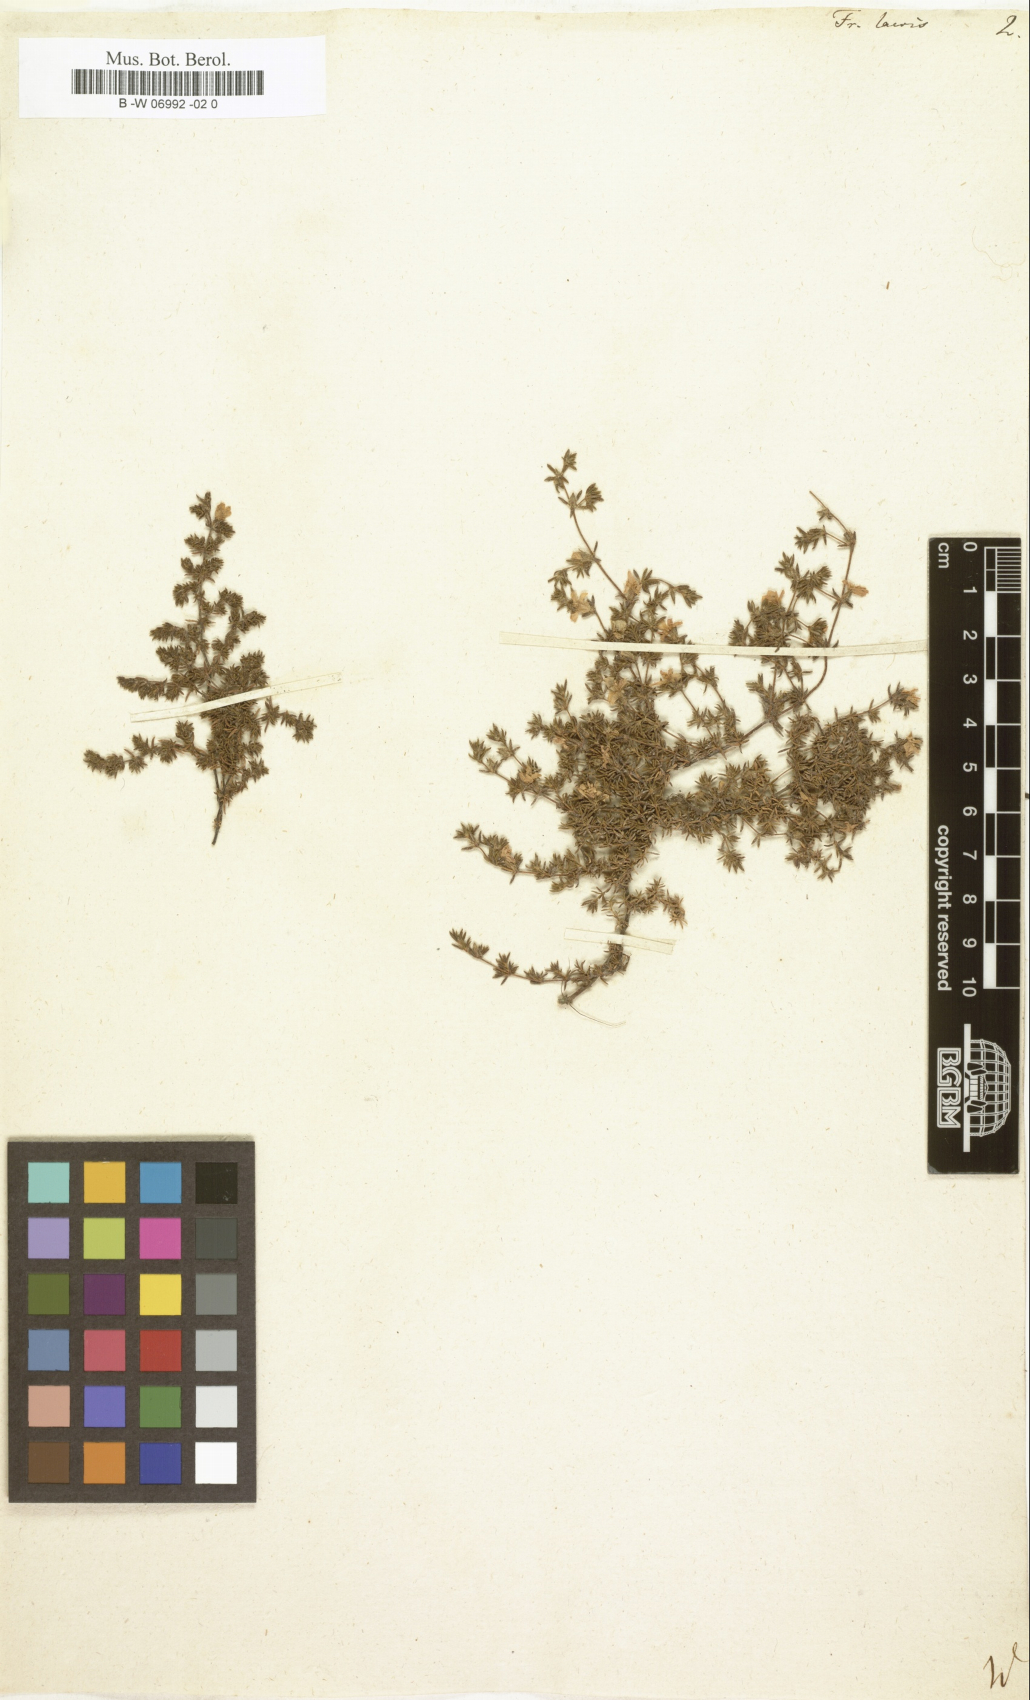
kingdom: Plantae
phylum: Tracheophyta
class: Magnoliopsida
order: Caryophyllales
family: Frankeniaceae
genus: Frankenia
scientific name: Frankenia laevis
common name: Sea-heath
